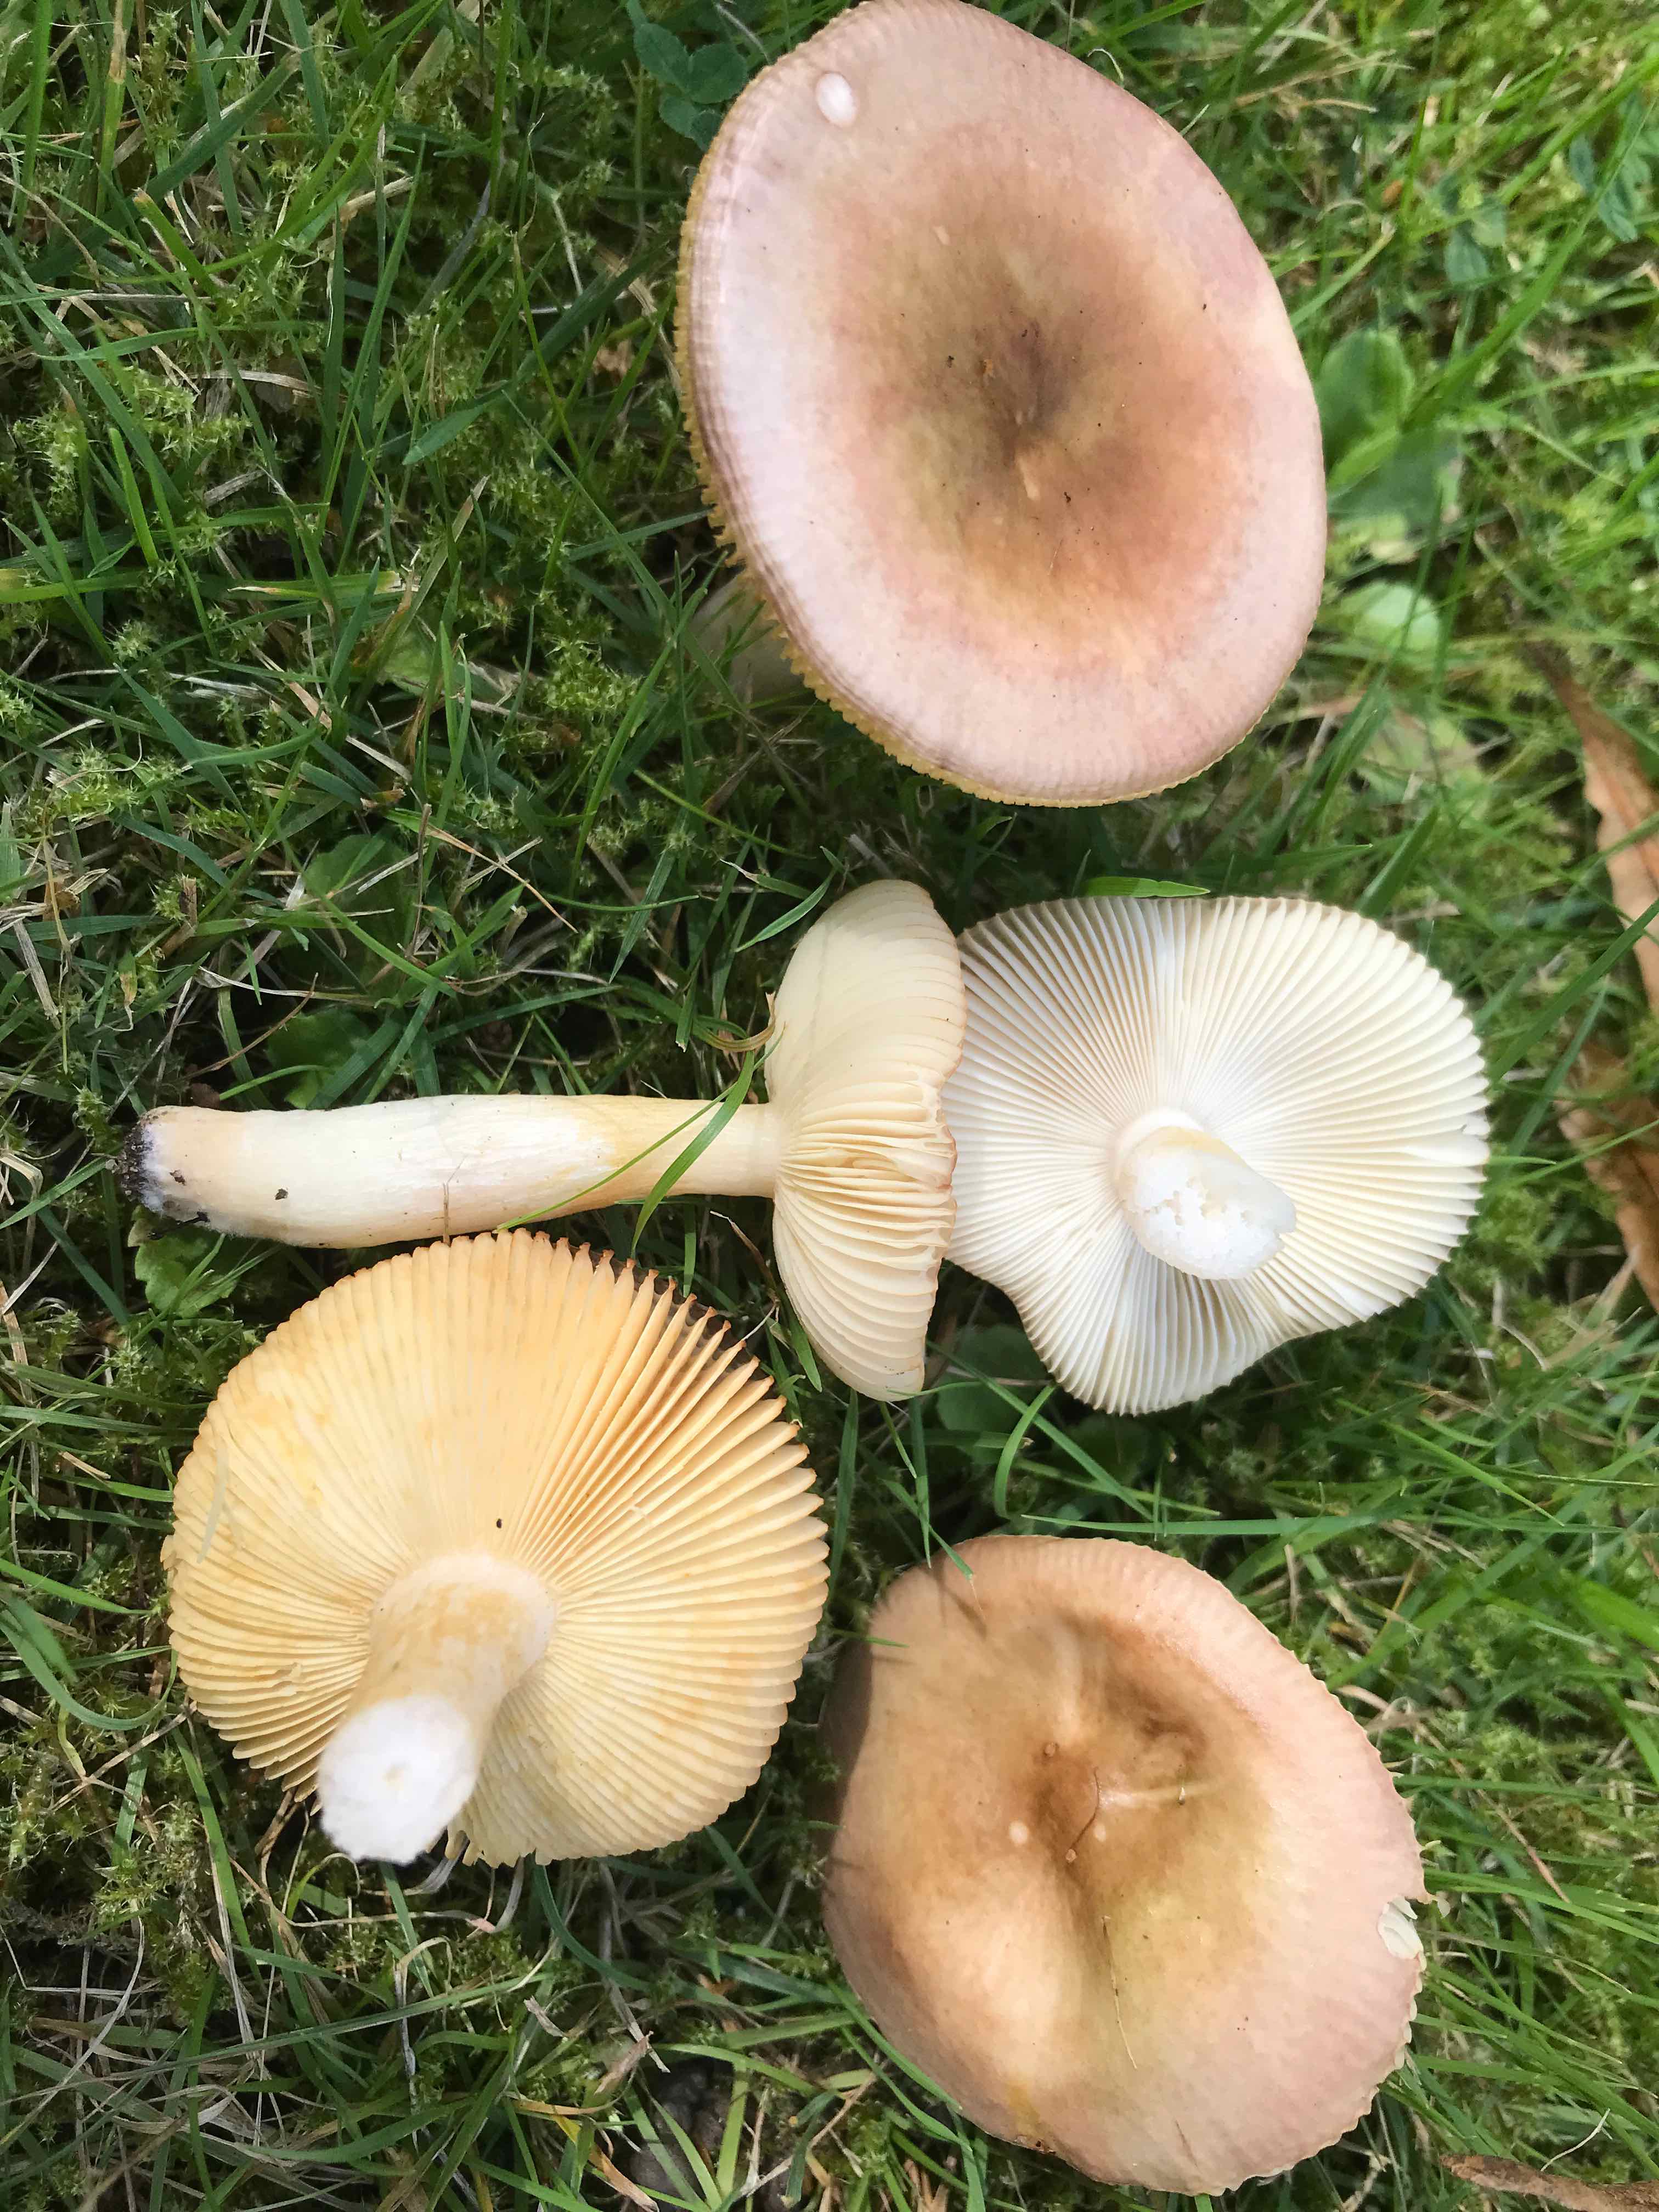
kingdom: Fungi
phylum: Basidiomycota
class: Agaricomycetes
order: Russulales
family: Russulaceae
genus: Russula
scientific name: Russula versicolor
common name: foranderlig skørhat
